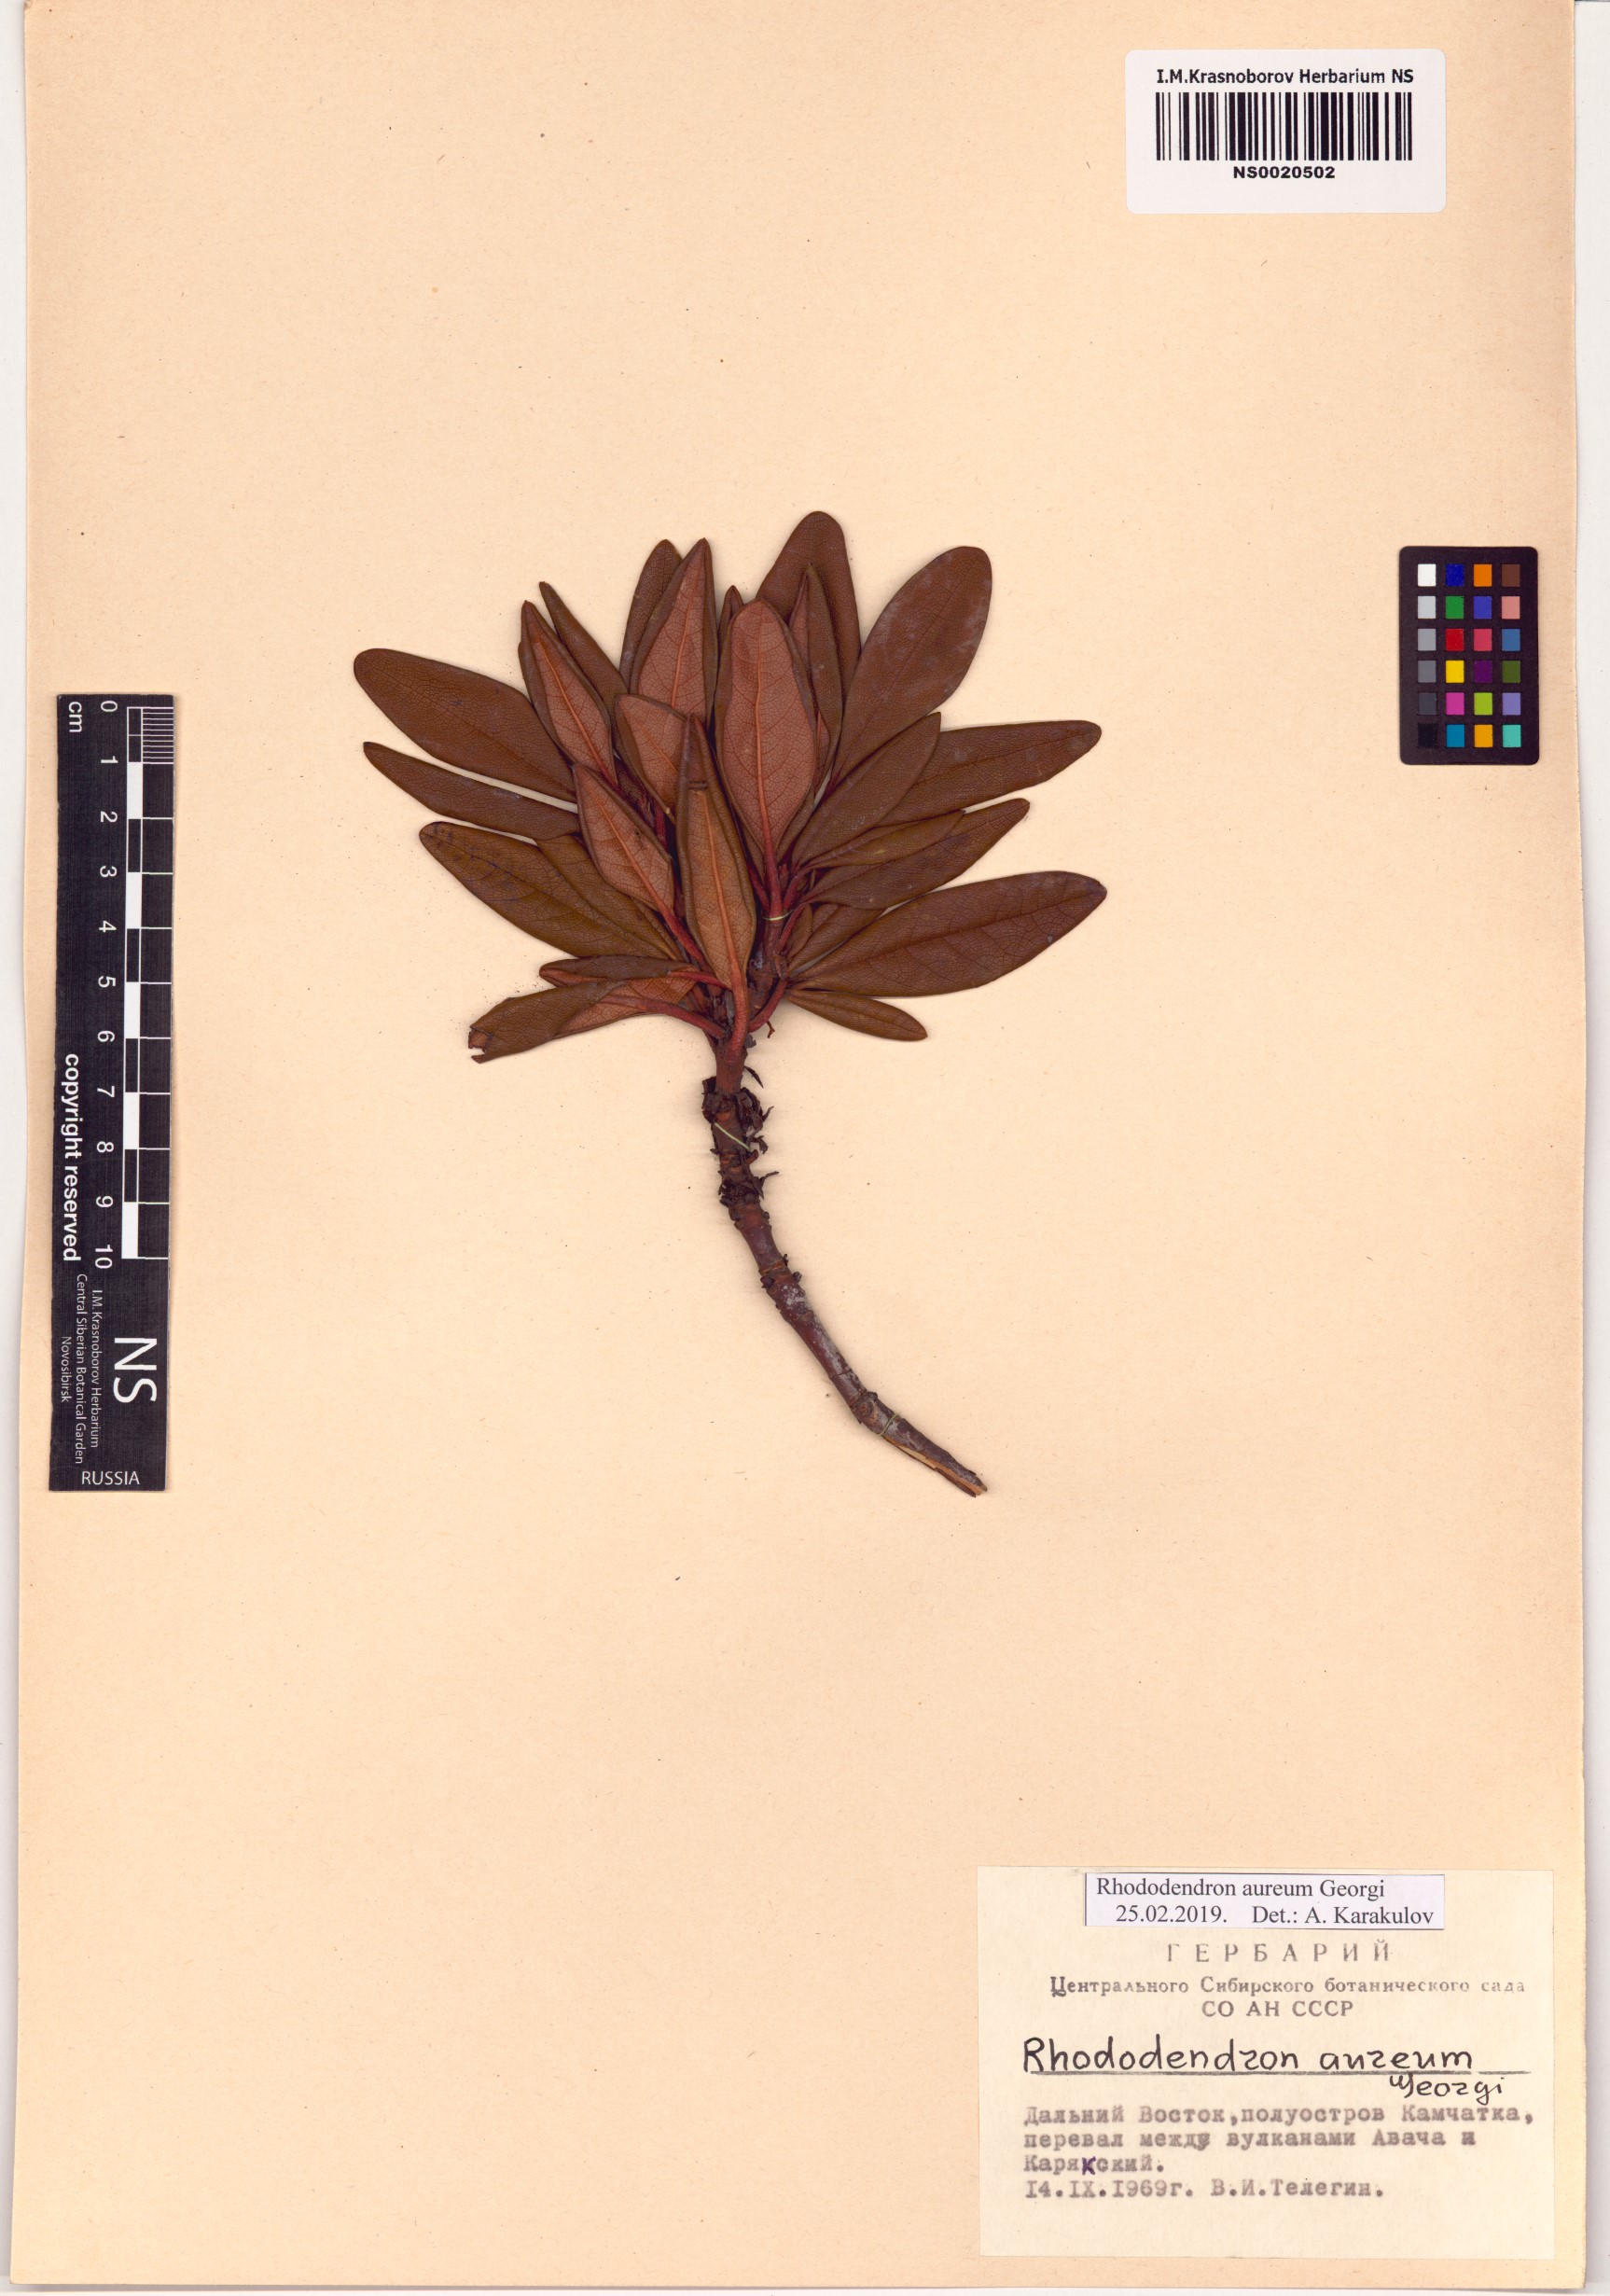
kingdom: Plantae
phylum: Tracheophyta
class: Magnoliopsida
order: Ericales
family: Ericaceae
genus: Rhododendron
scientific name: Rhododendron aureum
